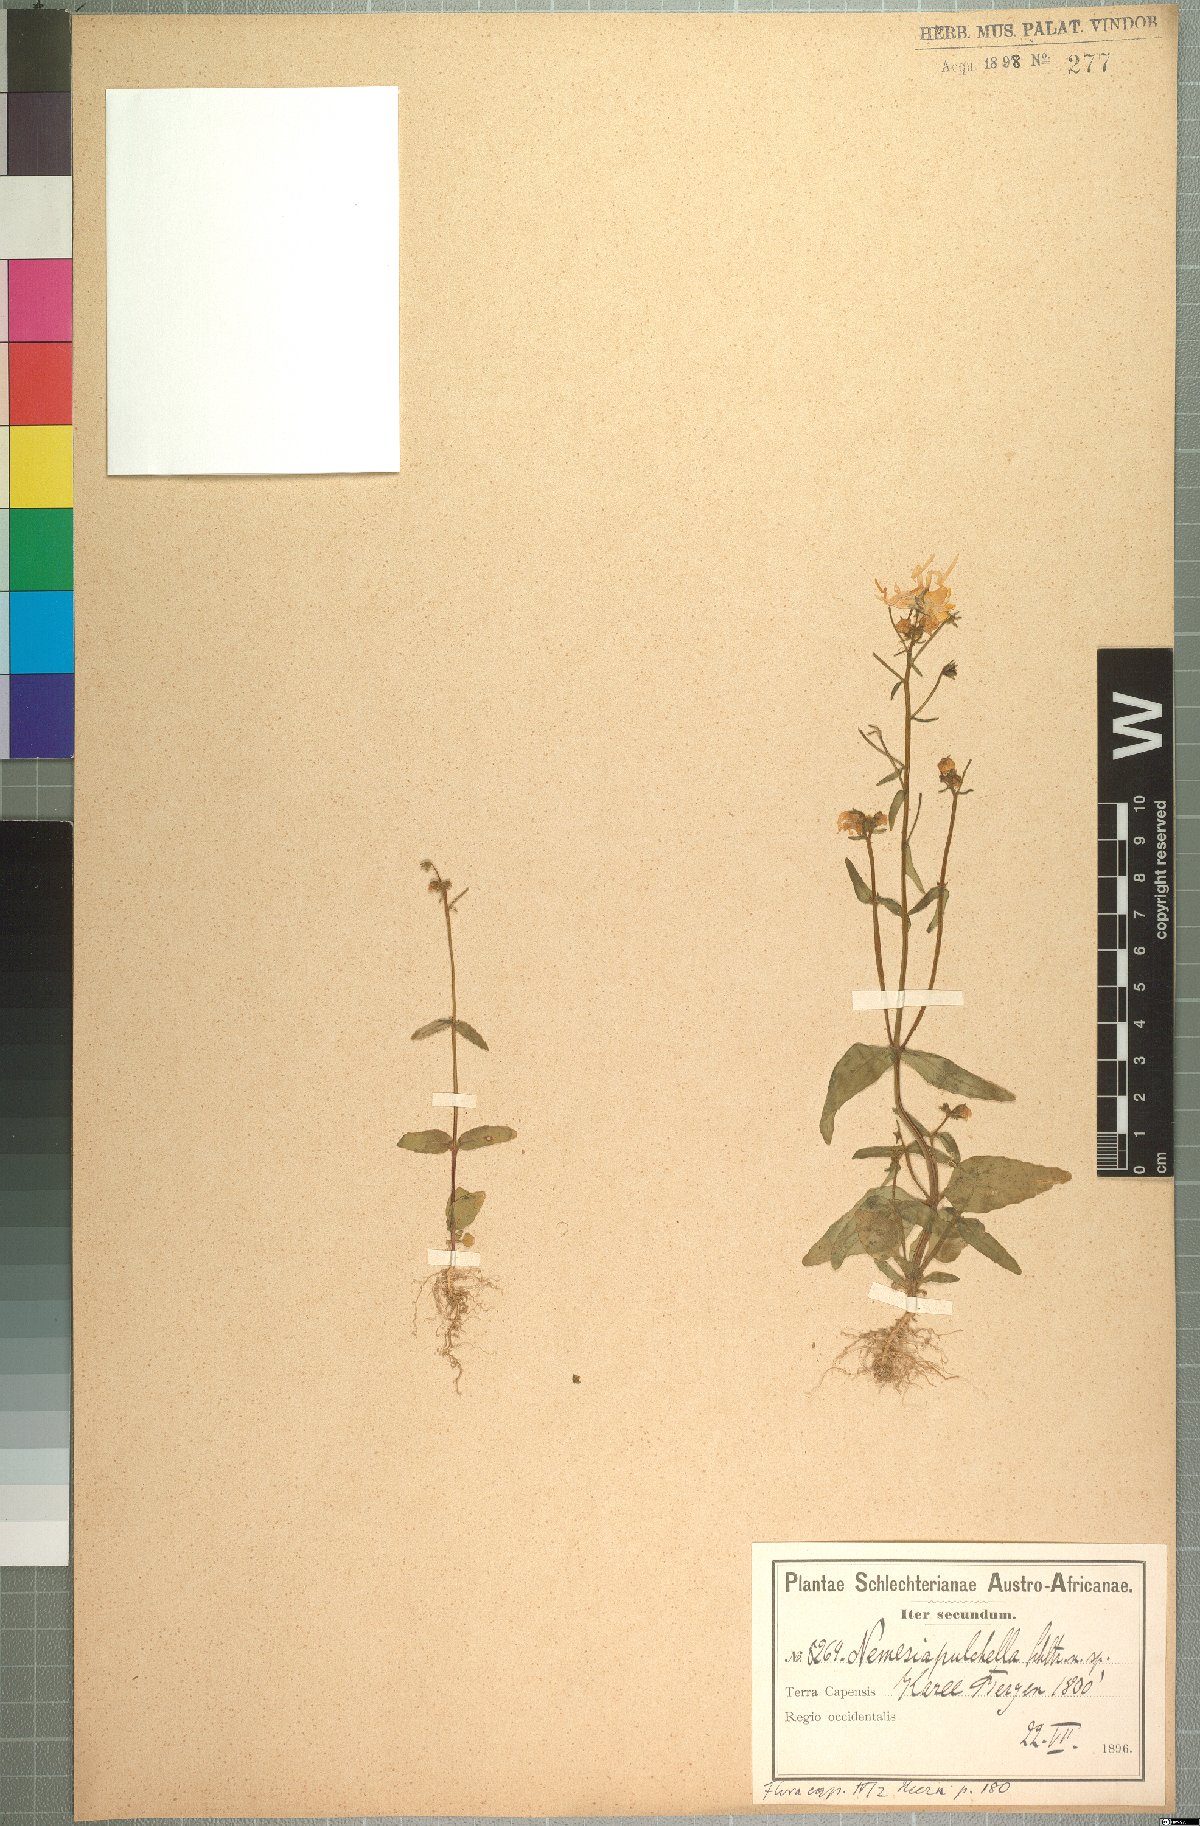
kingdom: Plantae
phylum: Tracheophyta
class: Magnoliopsida
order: Lamiales
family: Scrophulariaceae
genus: Nemesia
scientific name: Nemesia pulchella
